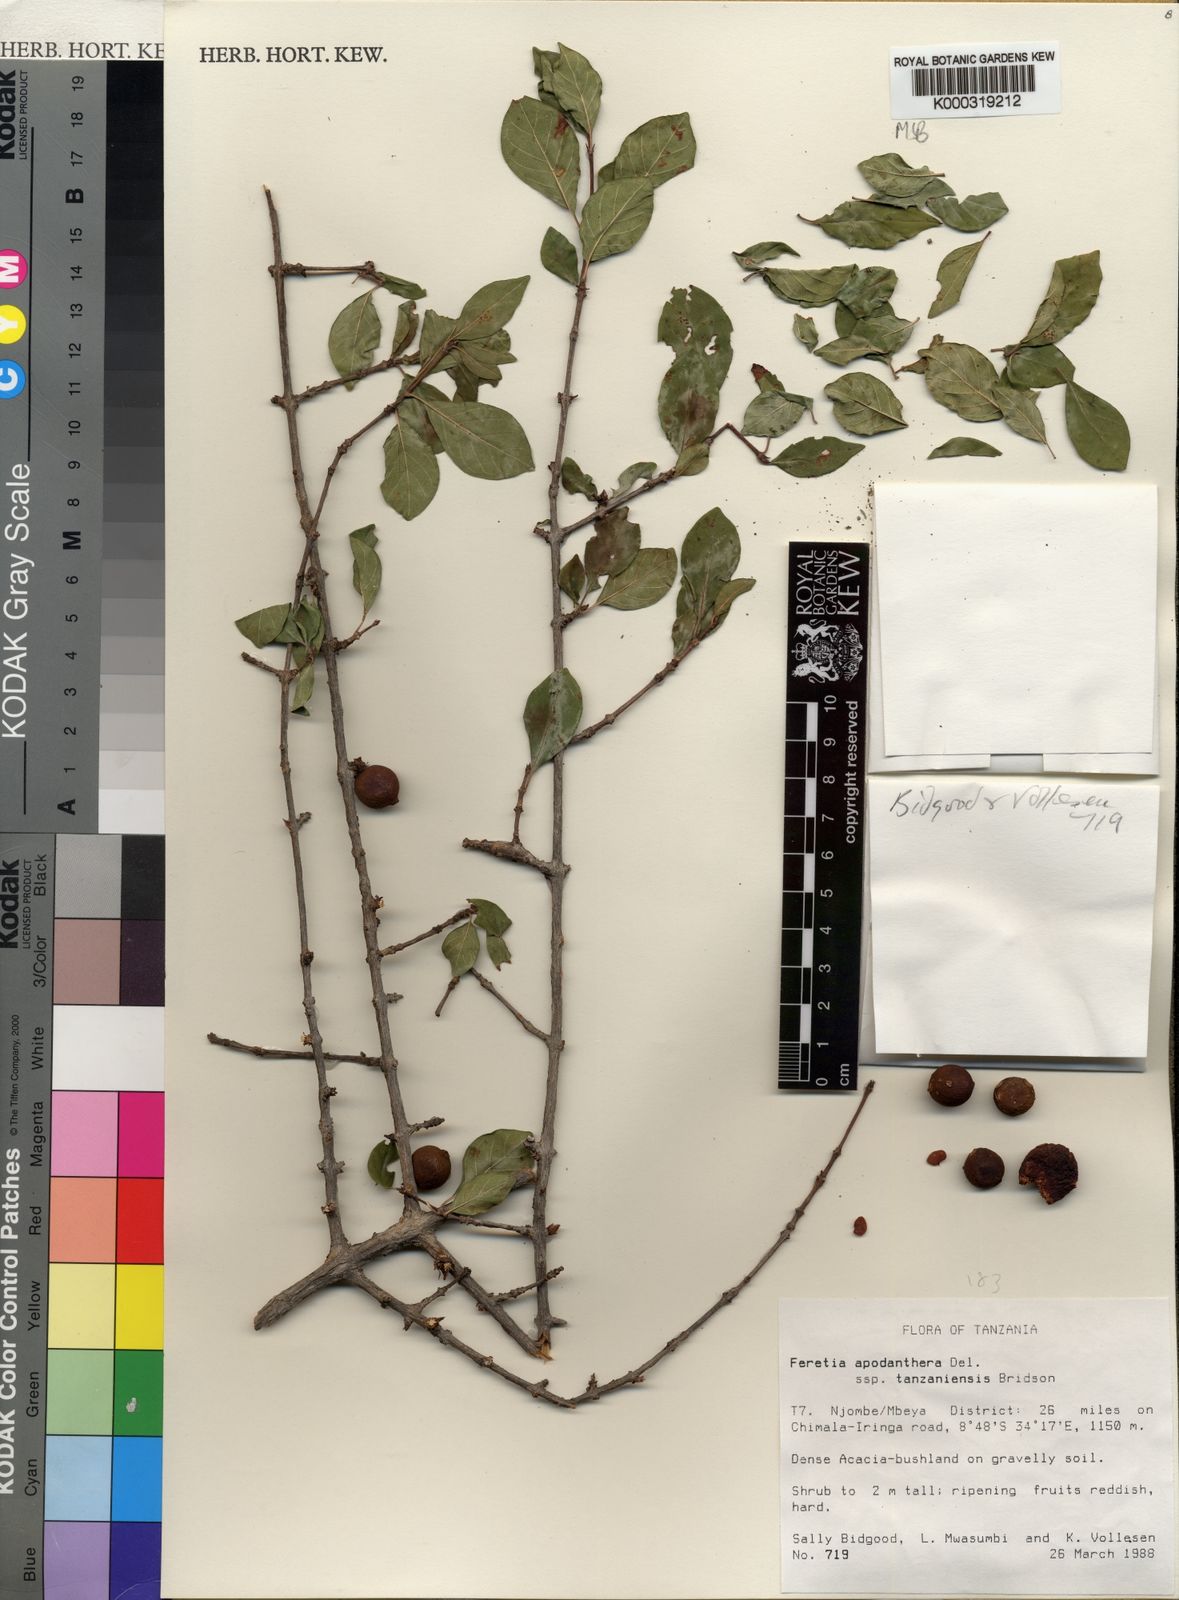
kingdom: Plantae
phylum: Tracheophyta
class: Magnoliopsida
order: Gentianales
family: Rubiaceae
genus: Feretia
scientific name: Feretia apodanthera
